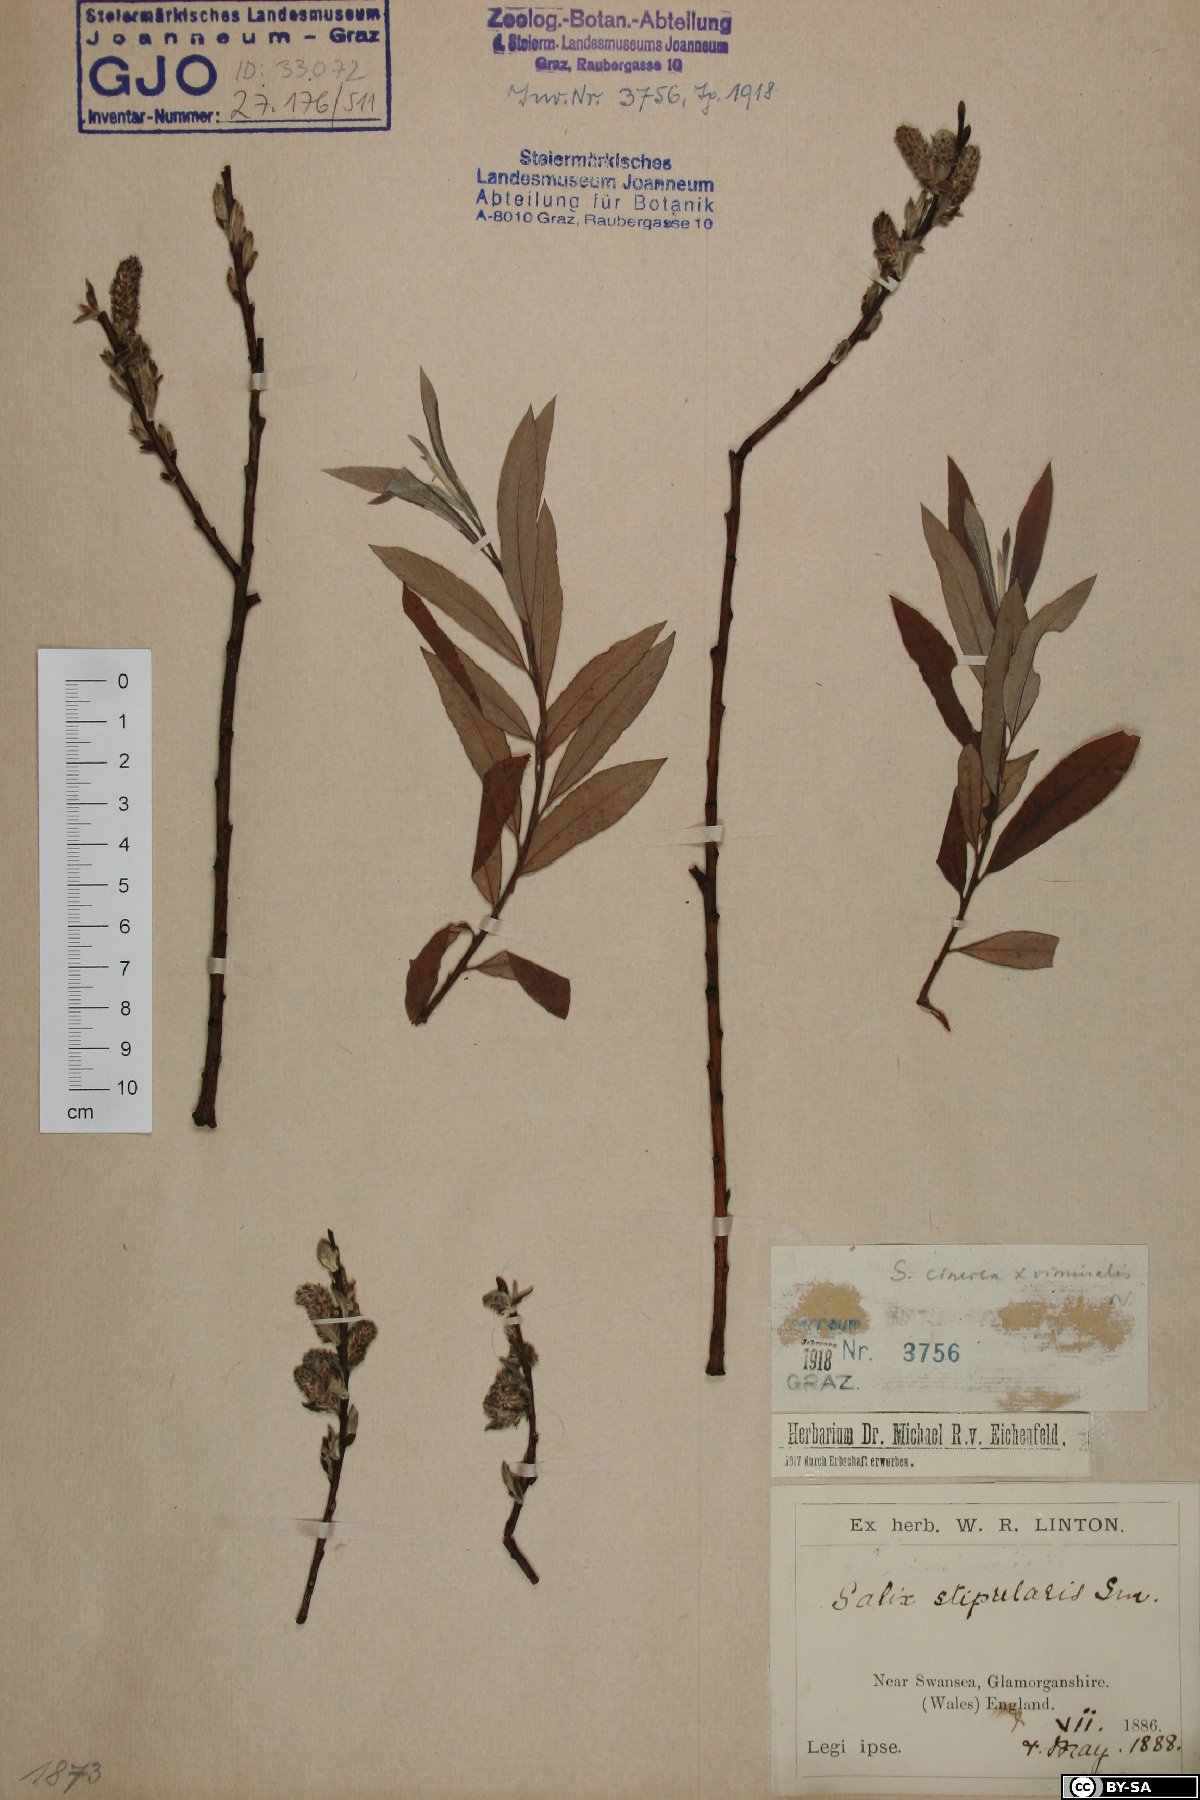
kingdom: Plantae
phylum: Tracheophyta
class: Magnoliopsida
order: Malpighiales
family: Salicaceae
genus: Salix
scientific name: Salix stipularis
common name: Eared osier
